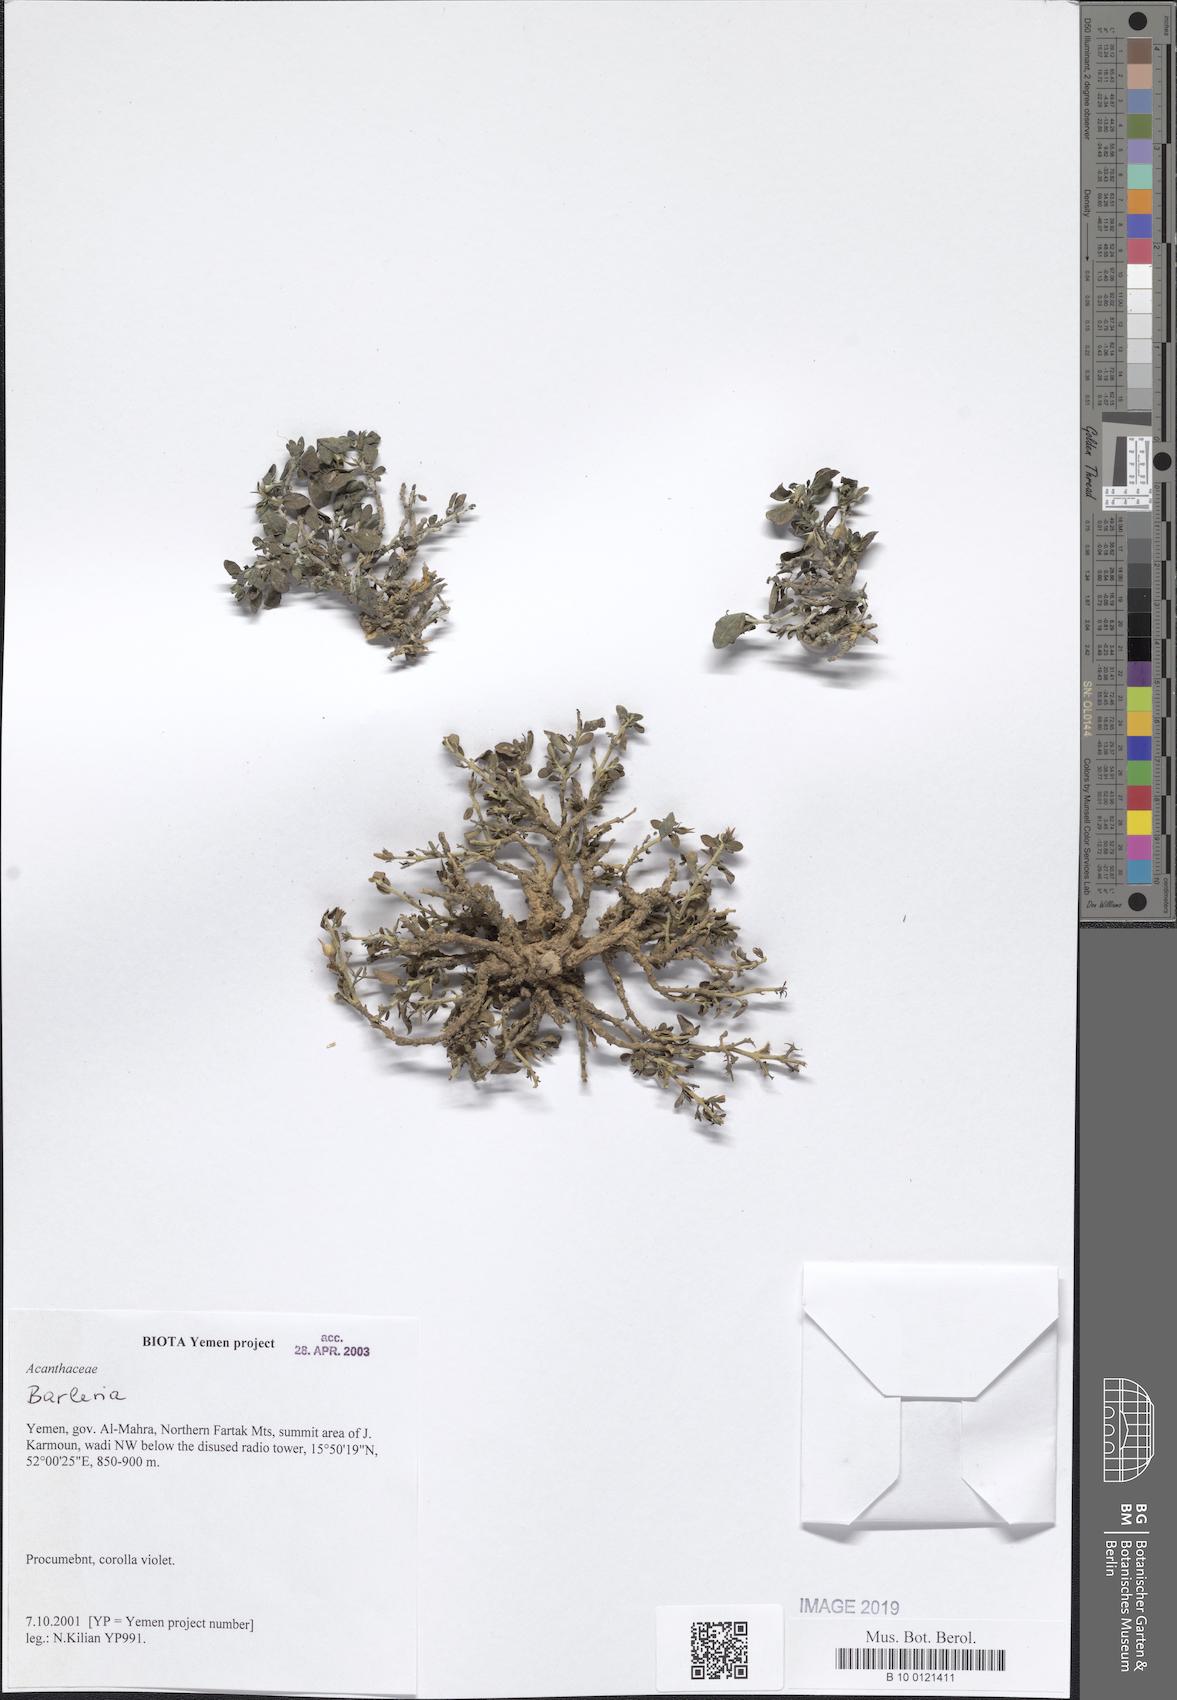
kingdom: Plantae
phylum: Tracheophyta
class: Magnoliopsida
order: Lamiales
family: Acanthaceae
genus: Barleria
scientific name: Barleria
